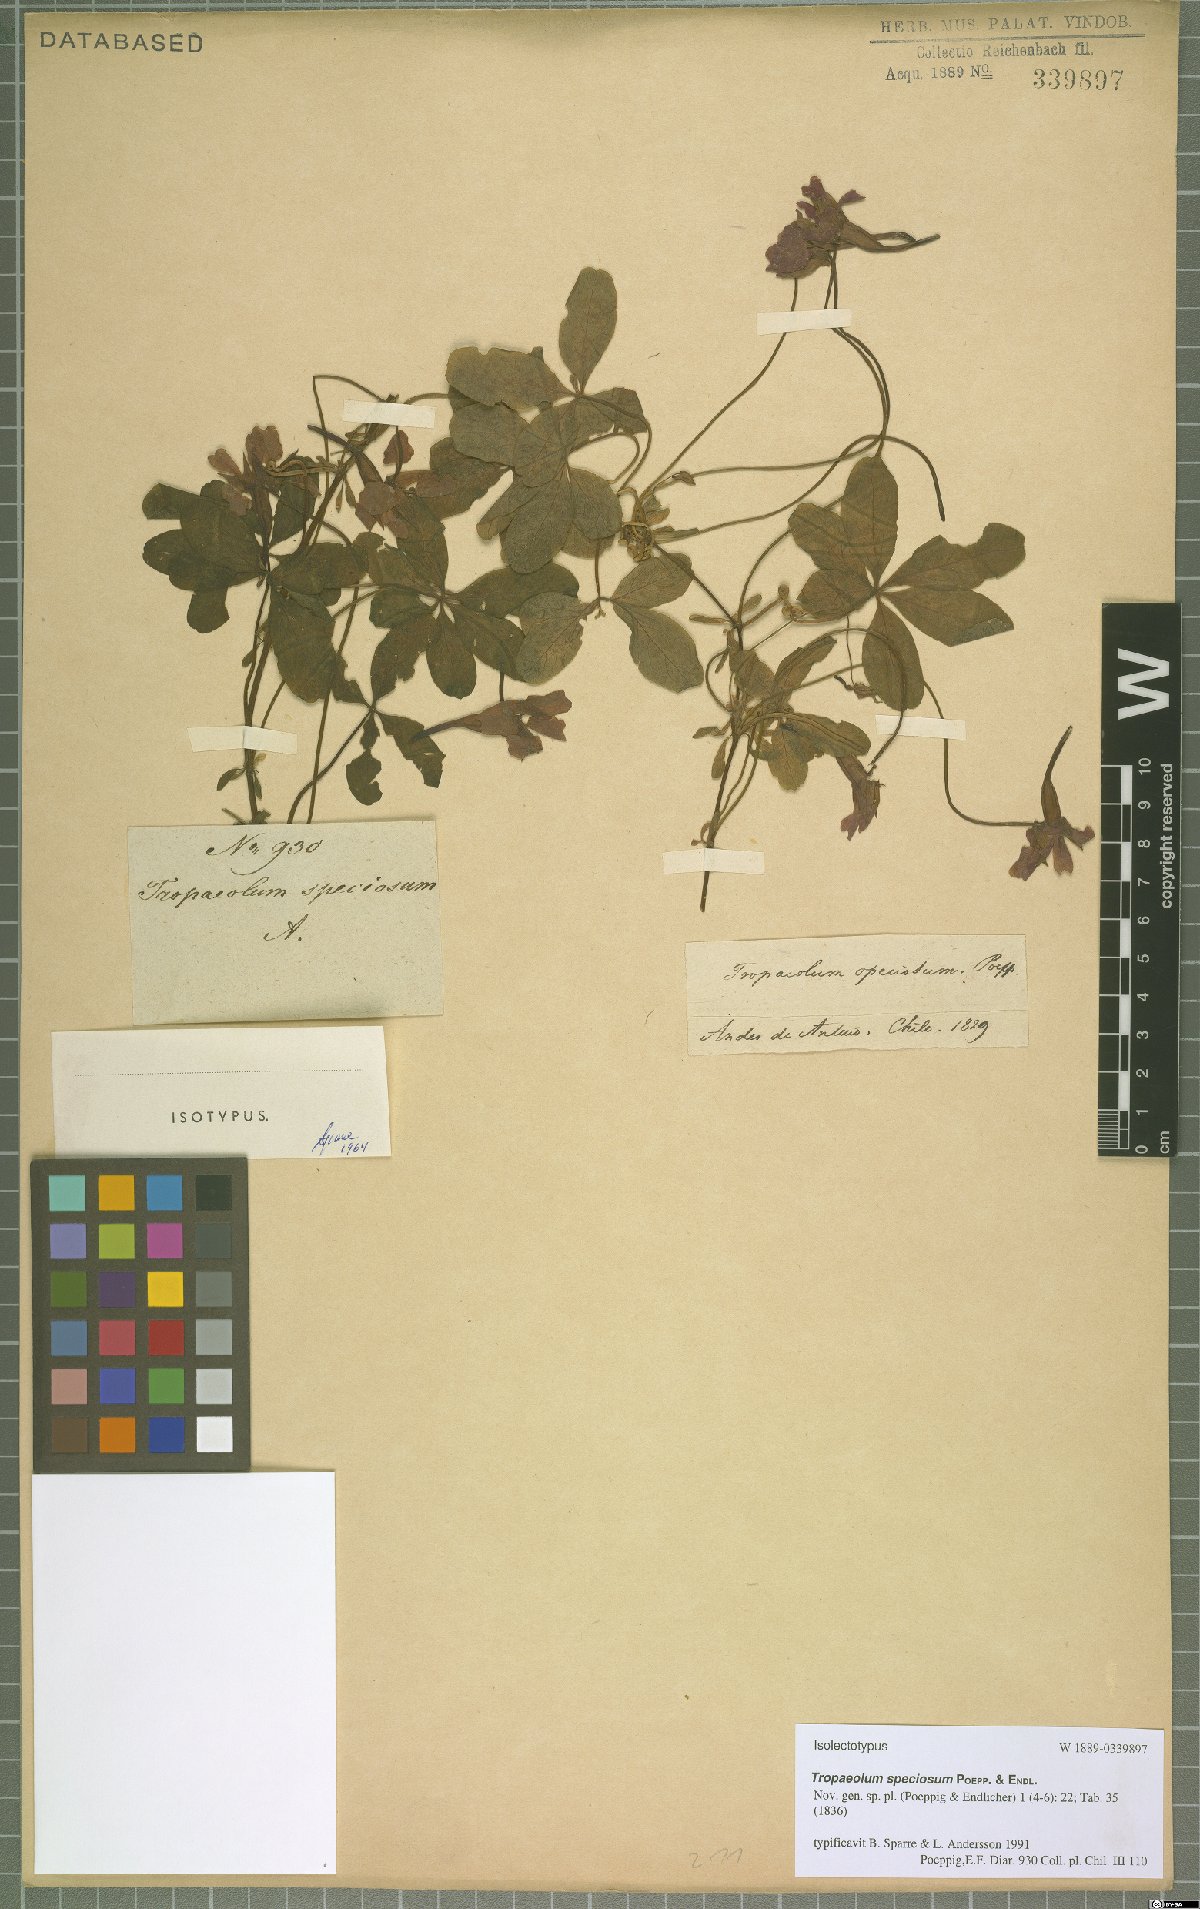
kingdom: Plantae
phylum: Tracheophyta
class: Magnoliopsida
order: Brassicales
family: Tropaeolaceae
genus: Tropaeolum
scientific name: Tropaeolum speciosum
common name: Flame nasturtium
